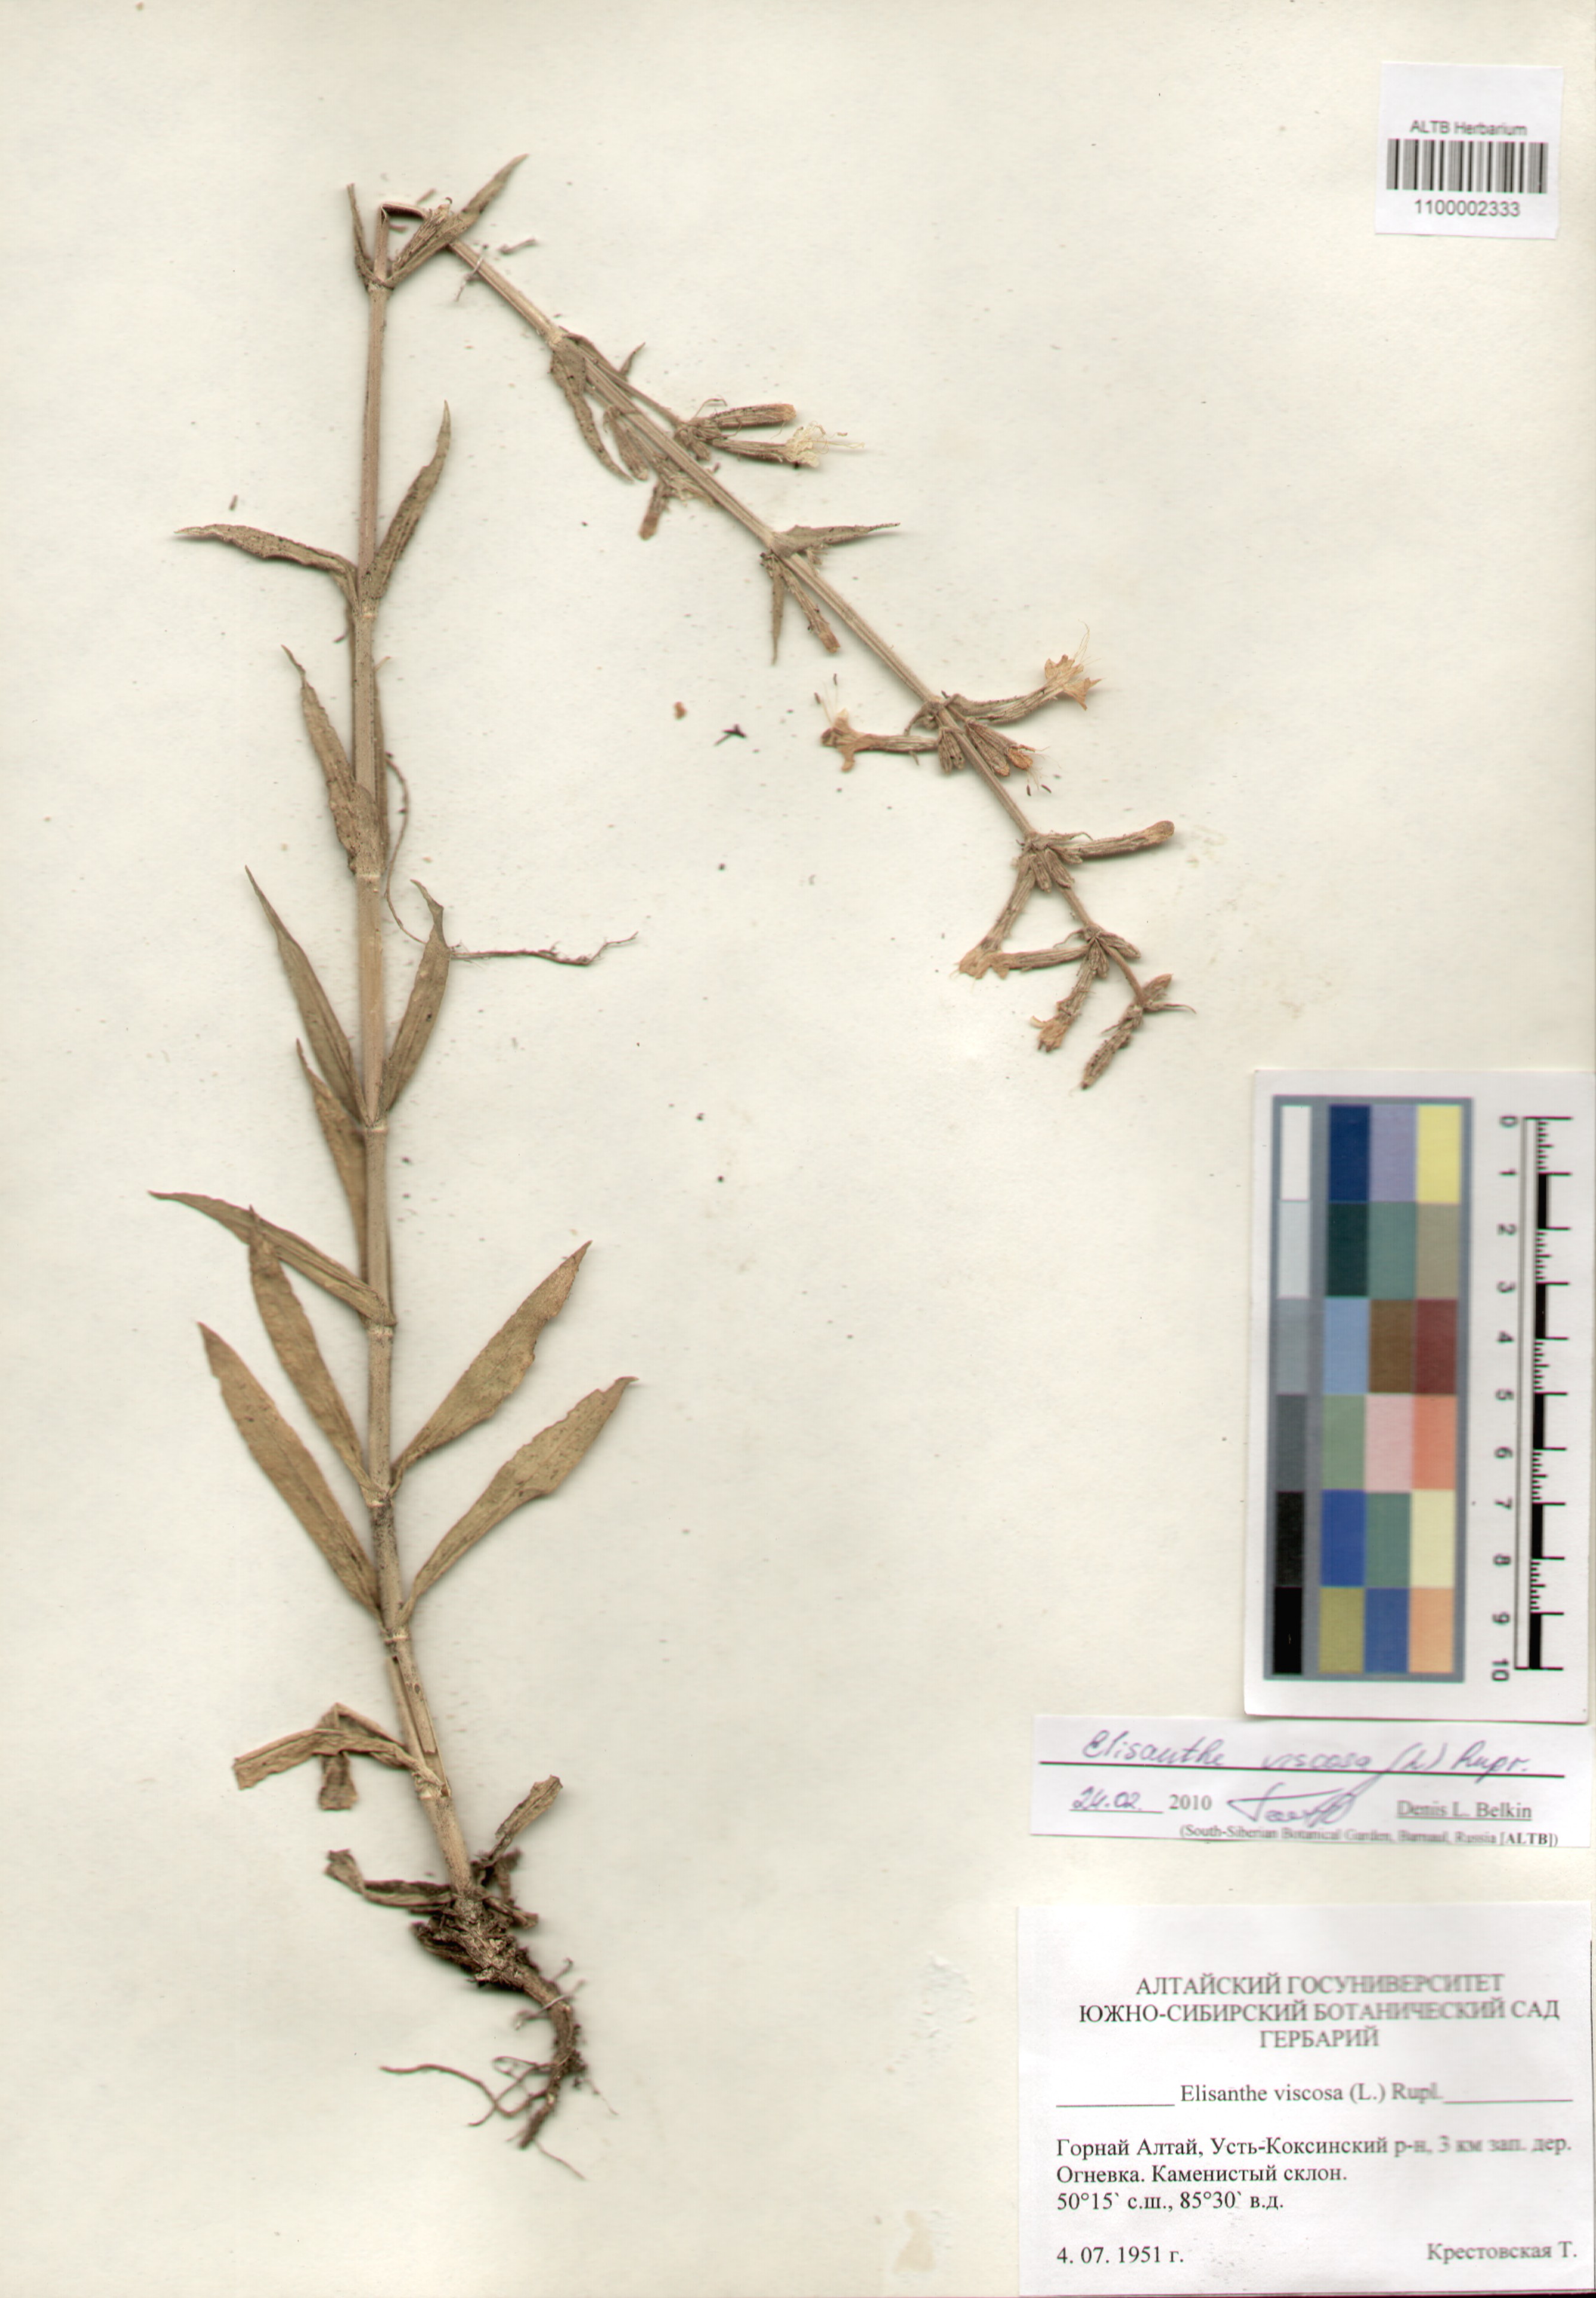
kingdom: Plantae
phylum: Tracheophyta
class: Magnoliopsida
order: Caryophyllales
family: Caryophyllaceae
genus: Silene
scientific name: Silene viscosa
